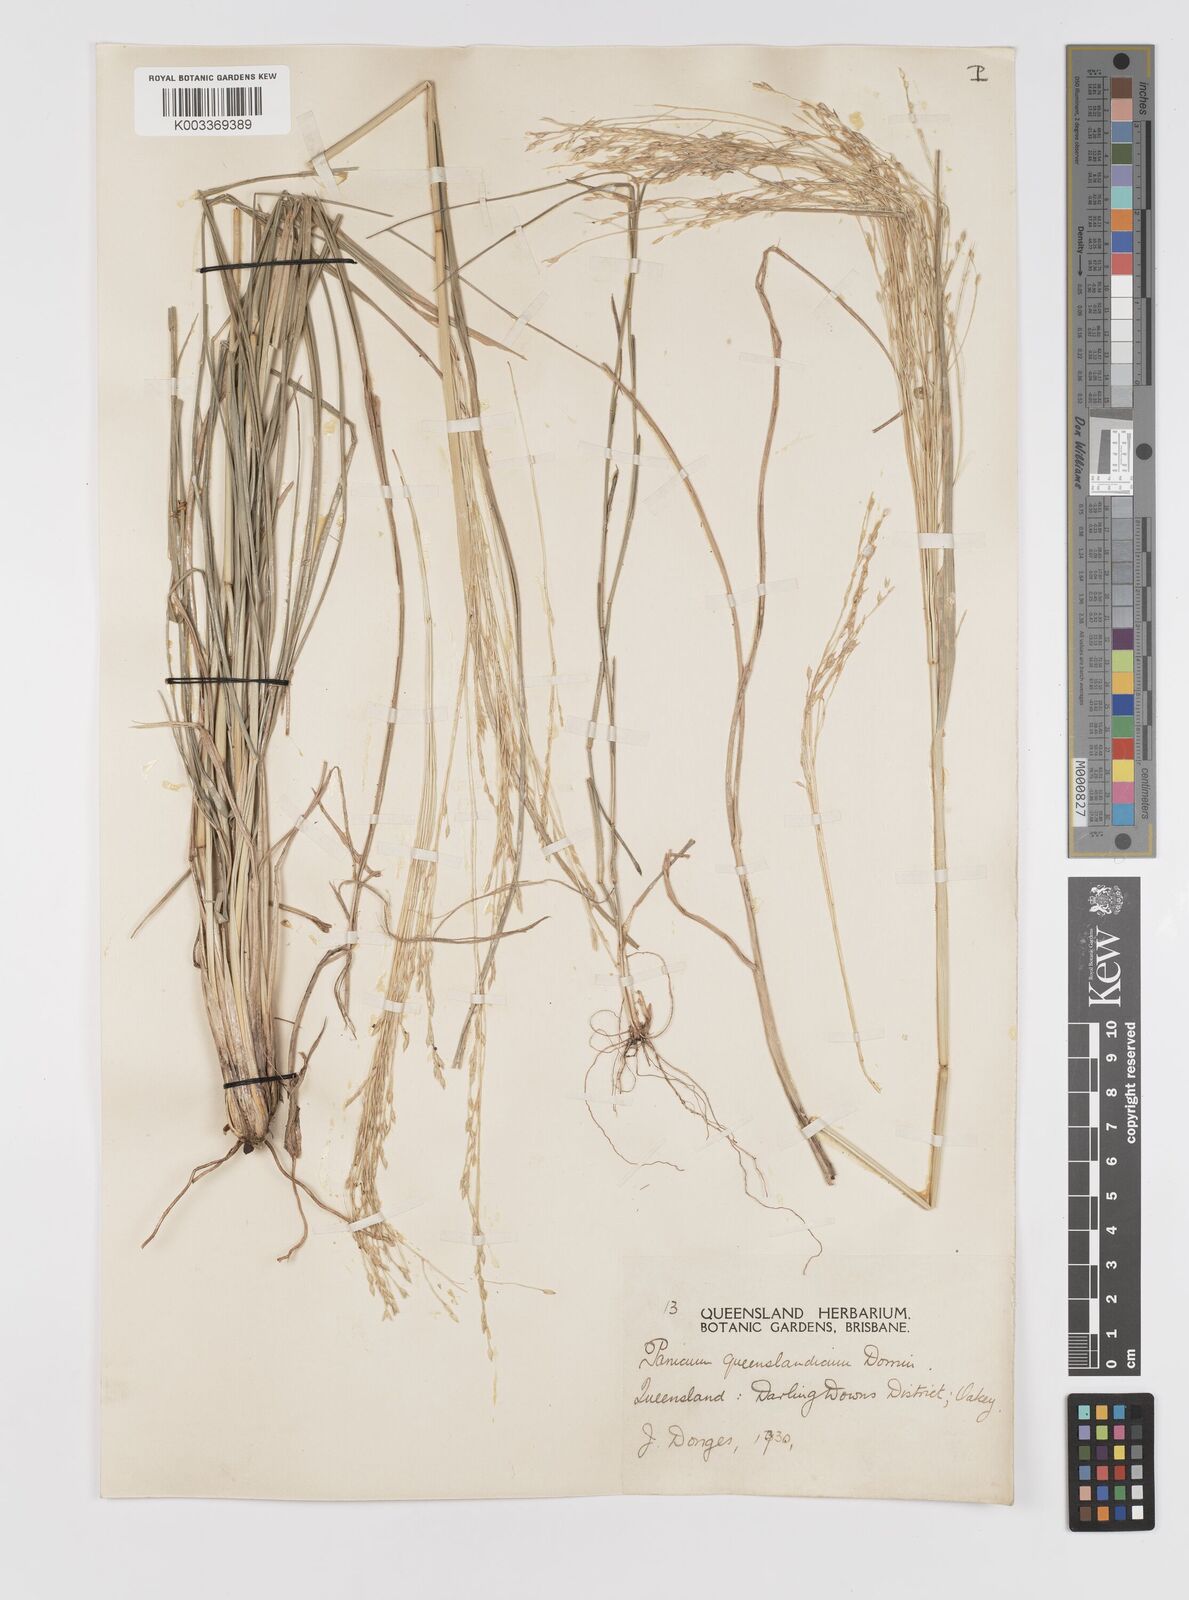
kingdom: Plantae
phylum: Tracheophyta
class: Liliopsida
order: Poales
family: Poaceae
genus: Panicum
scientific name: Panicum queenslandicum
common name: Yabila grass
